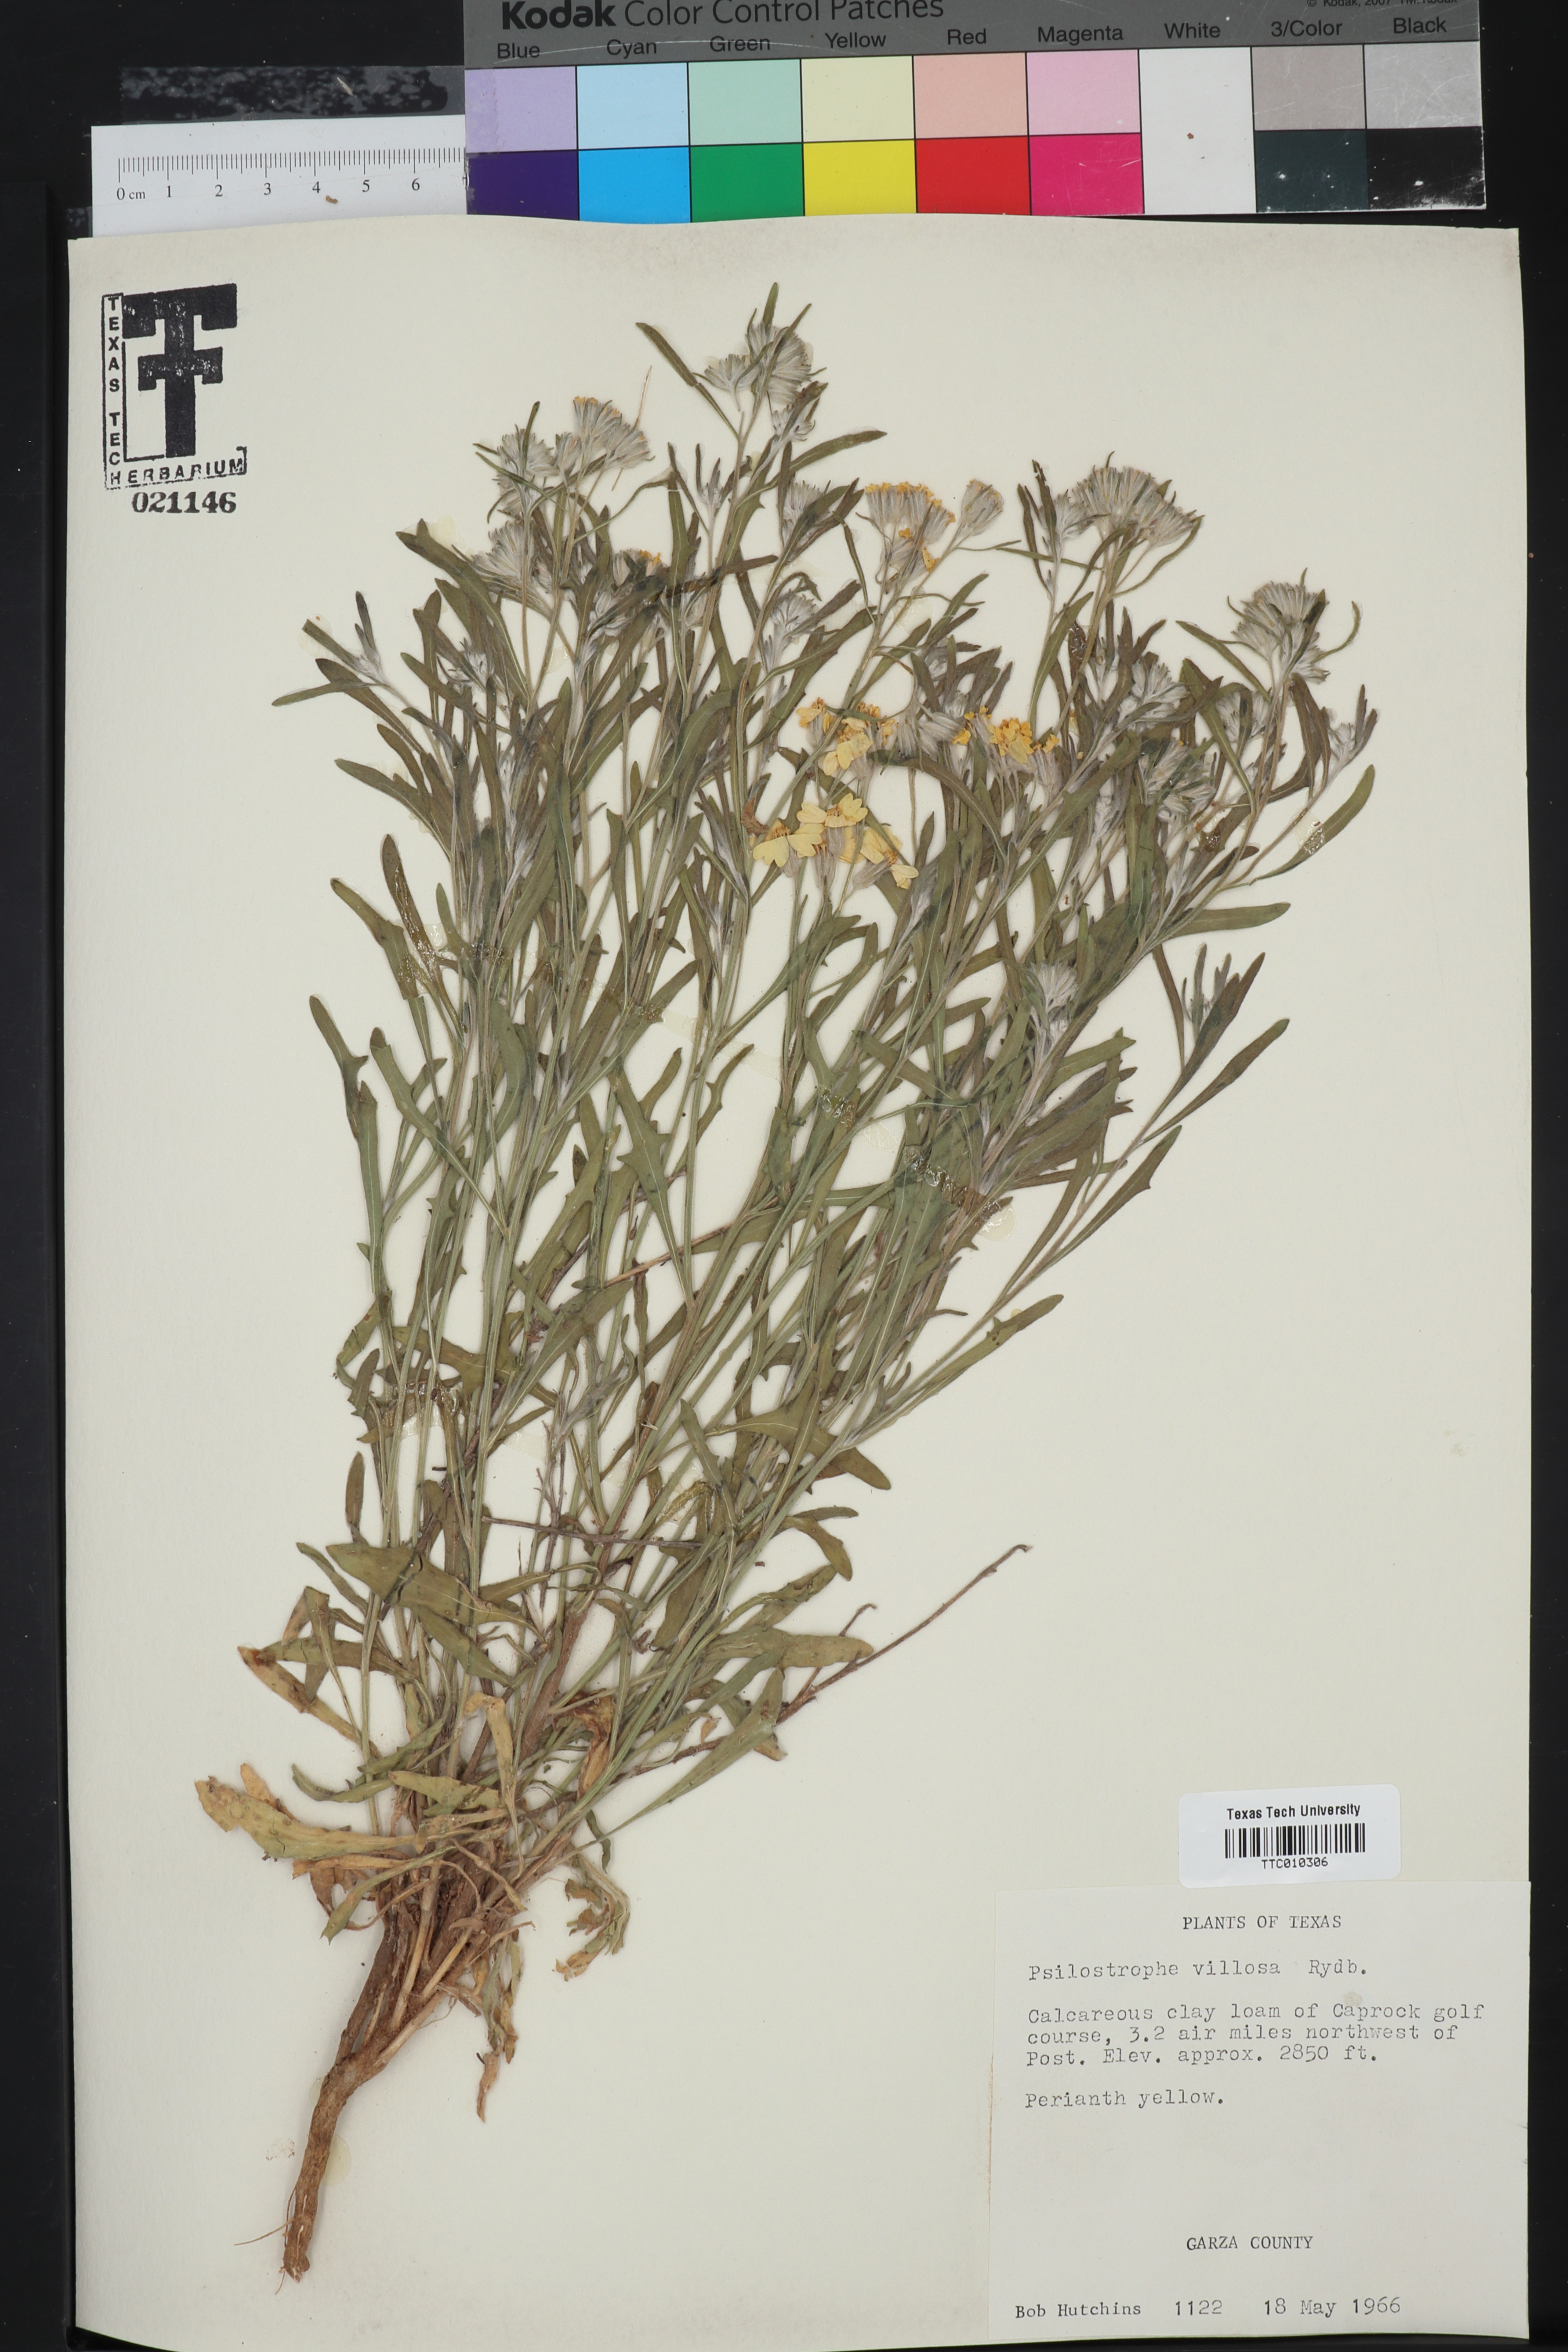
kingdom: Plantae
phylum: Tracheophyta
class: Magnoliopsida
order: Asterales
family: Asteraceae
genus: Psilostrophe
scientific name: Psilostrophe villosa
